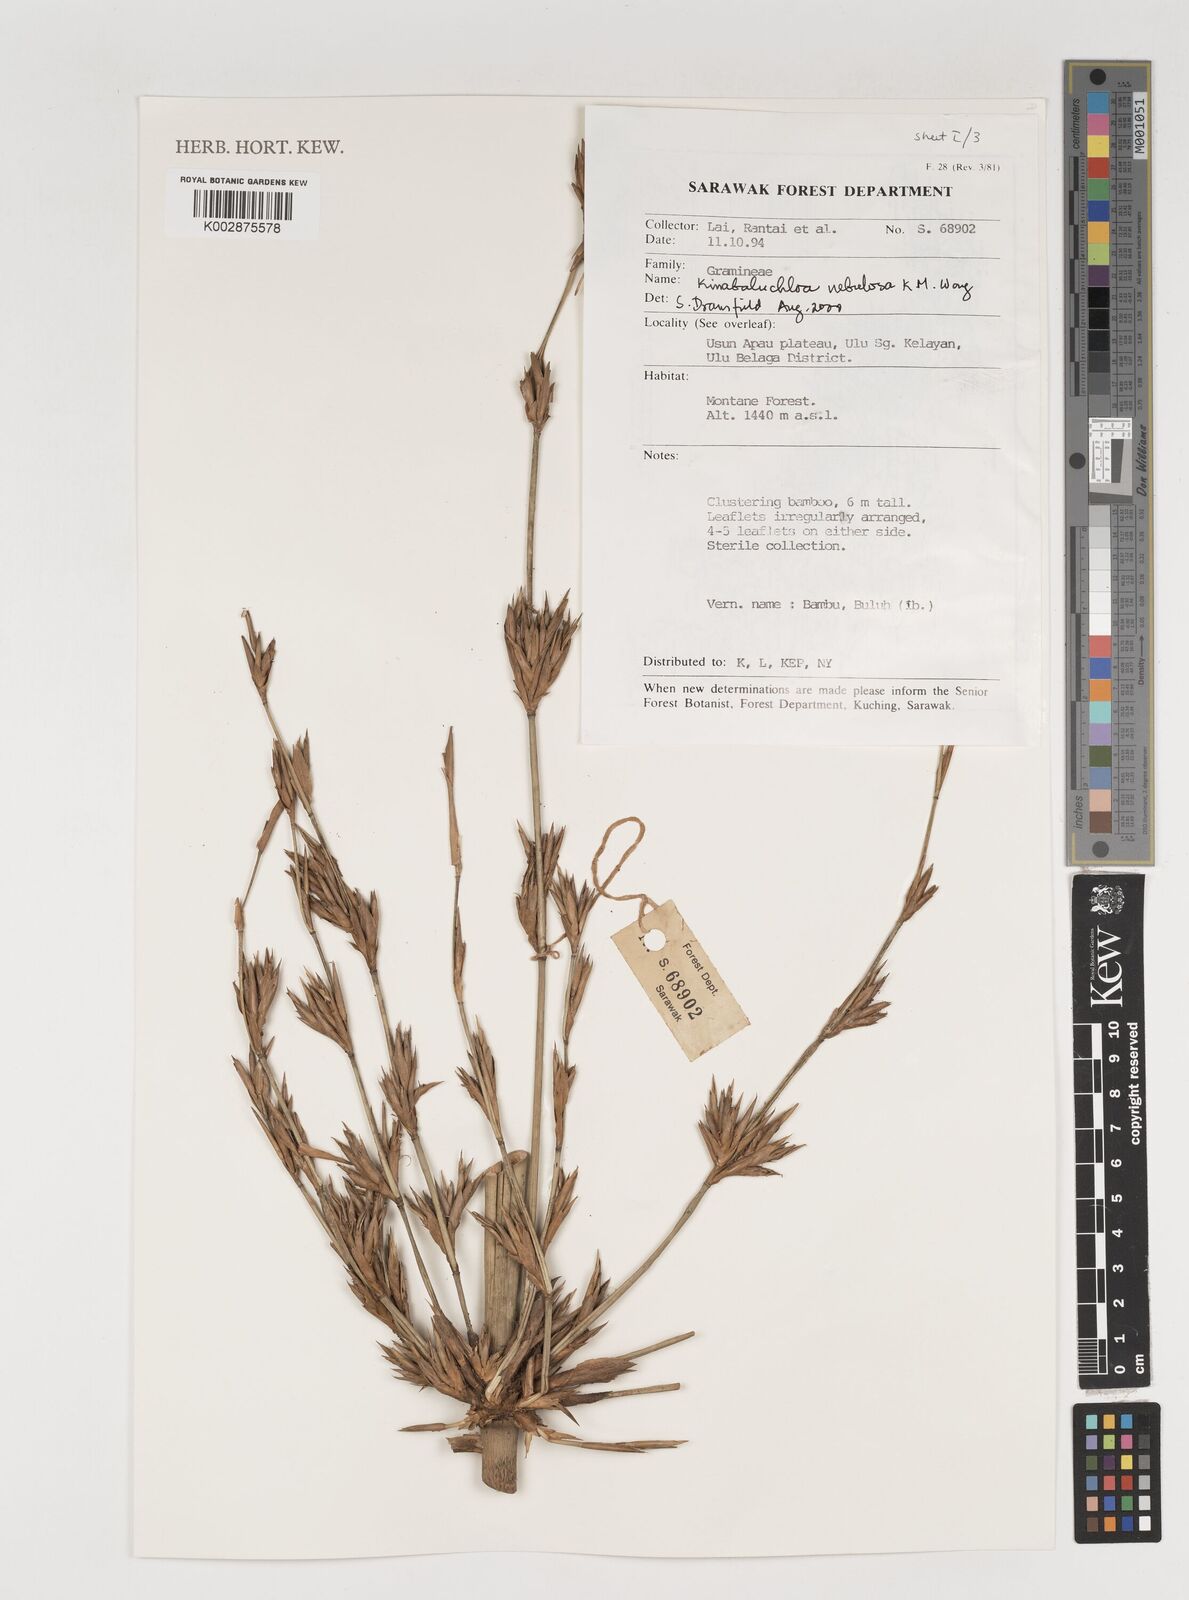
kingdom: Plantae
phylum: Tracheophyta
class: Liliopsida
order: Poales
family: Poaceae
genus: Kinabaluchloa
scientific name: Kinabaluchloa nebulosa
